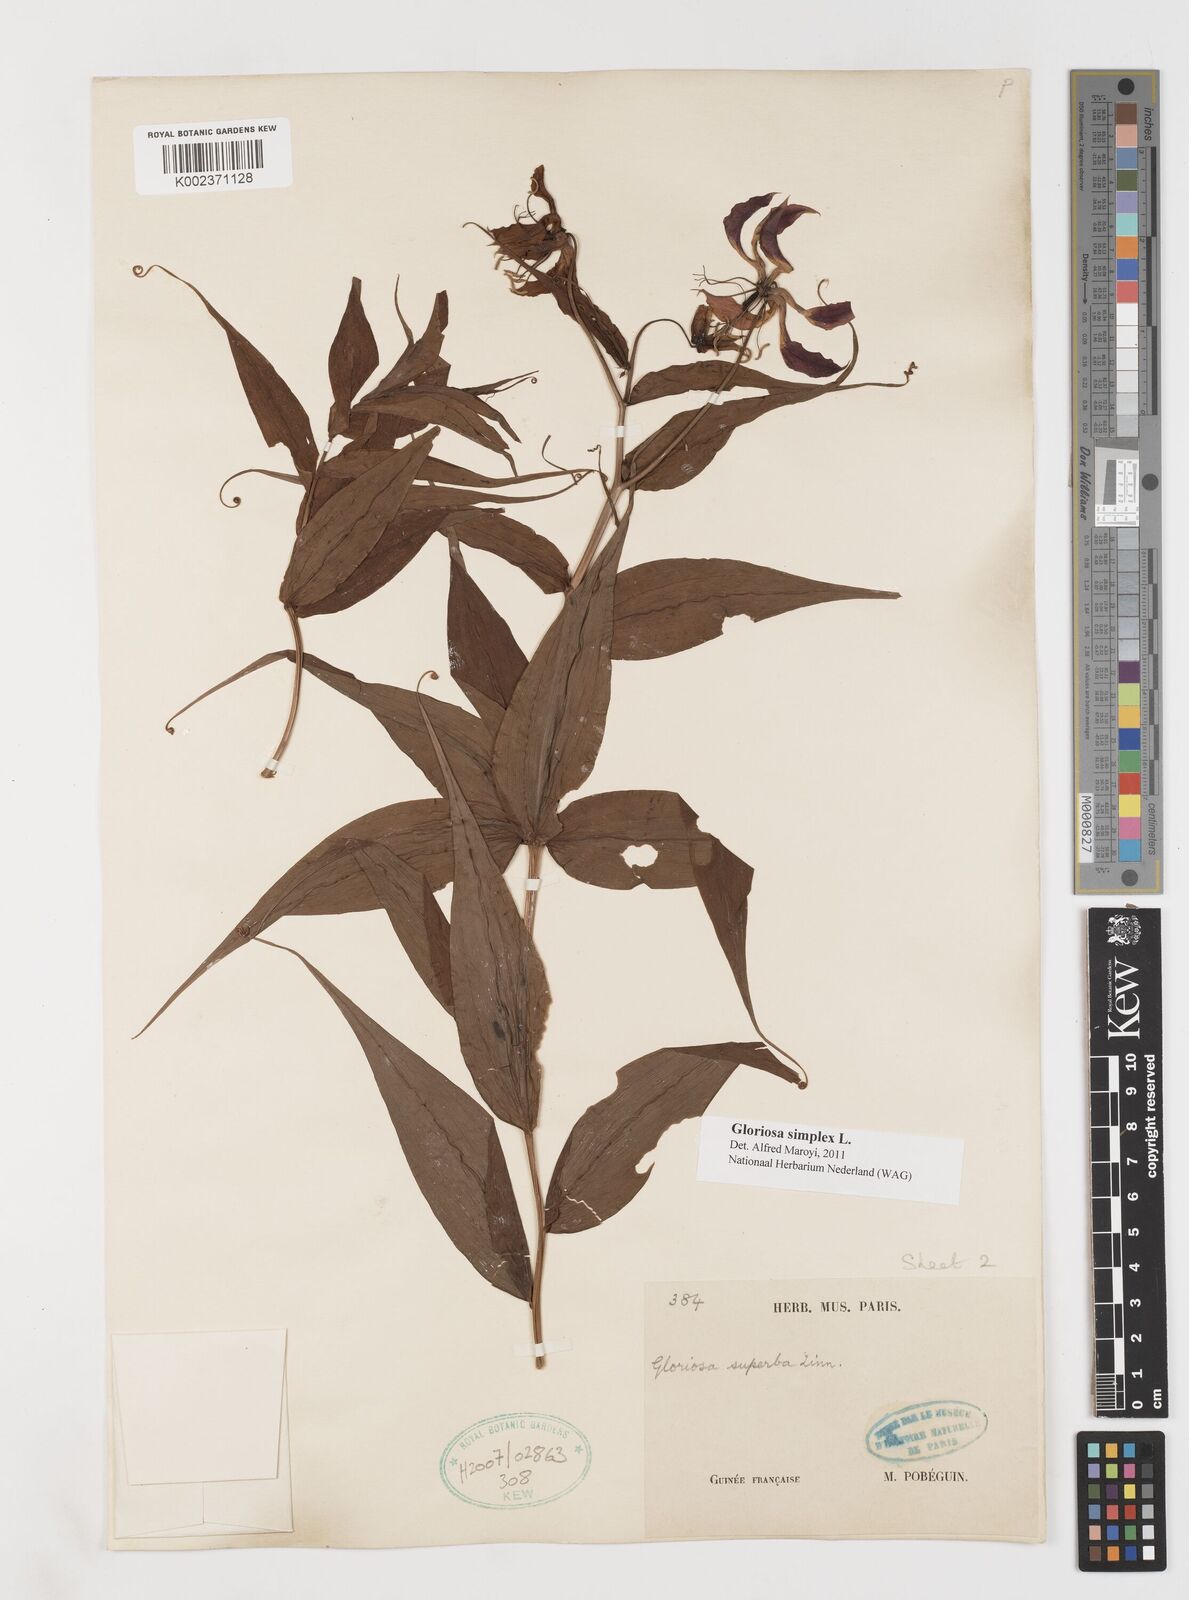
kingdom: Plantae
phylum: Tracheophyta
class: Liliopsida
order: Liliales
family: Colchicaceae
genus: Gloriosa
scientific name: Gloriosa simplex
